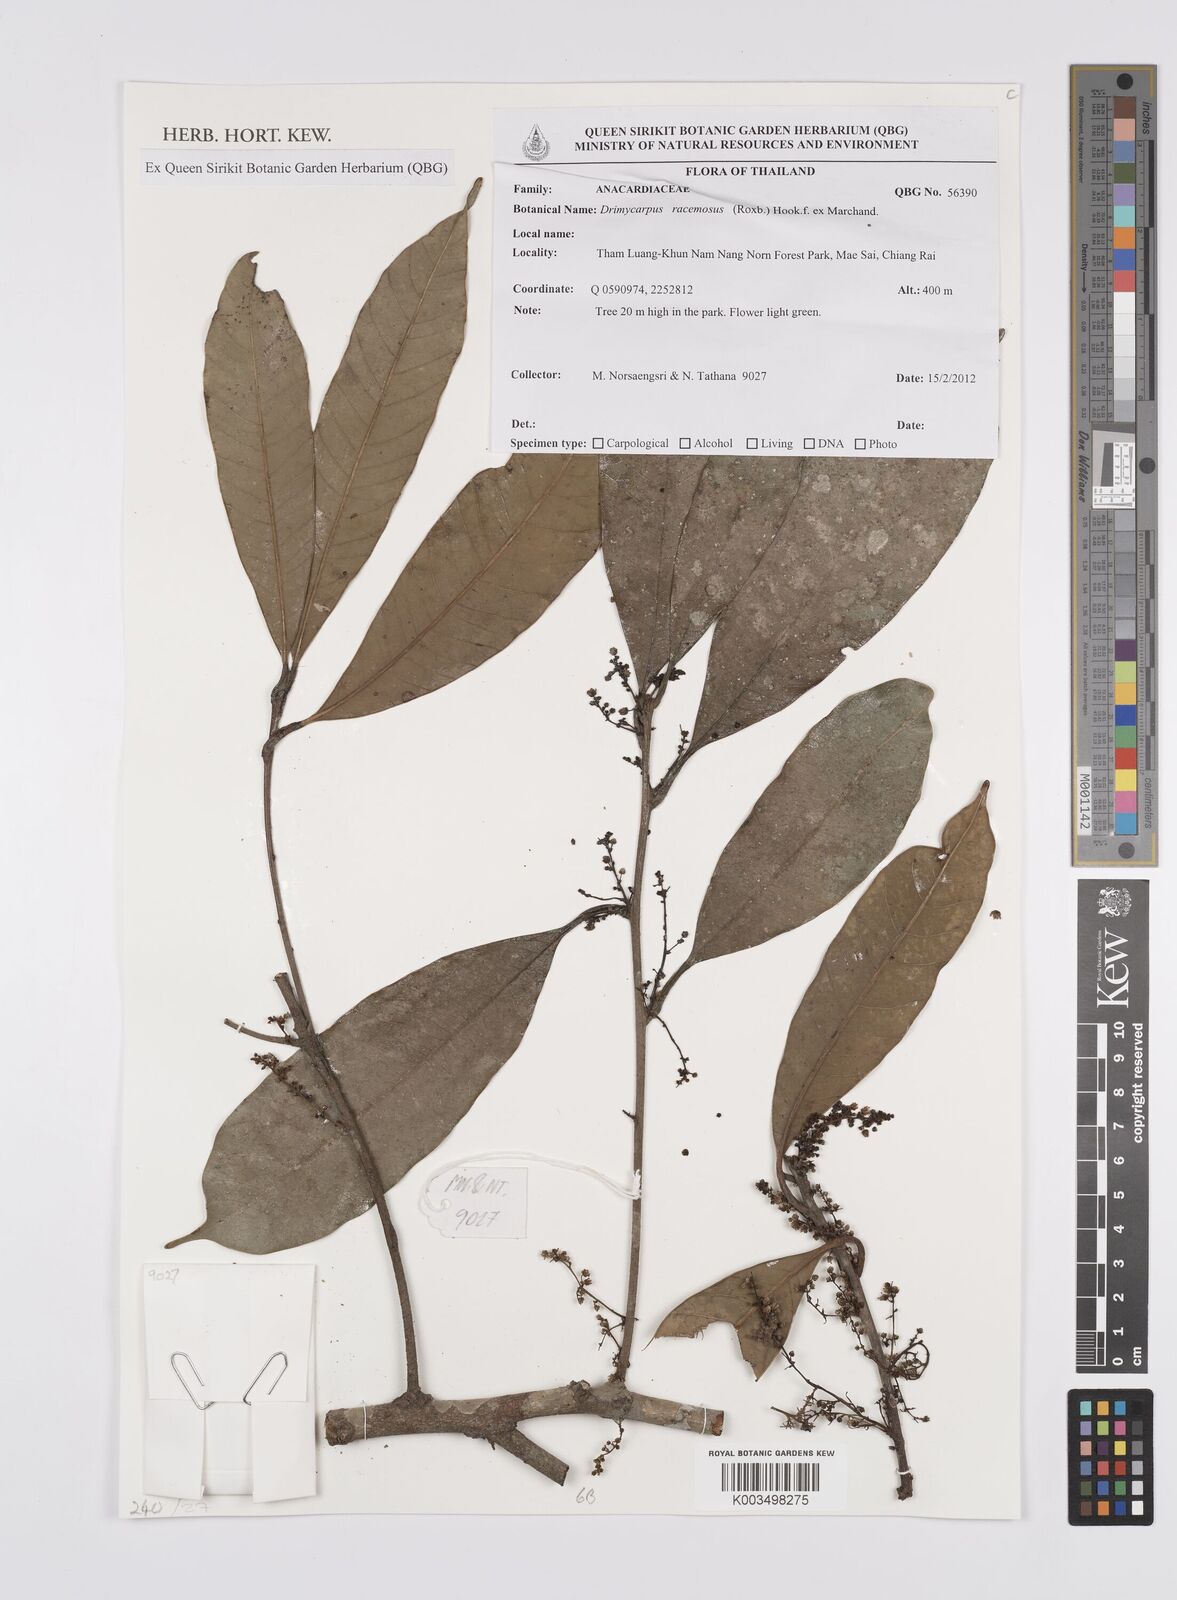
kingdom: Plantae
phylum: Tracheophyta
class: Magnoliopsida
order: Sapindales
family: Anacardiaceae
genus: Drimycarpus
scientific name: Drimycarpus racemosus
